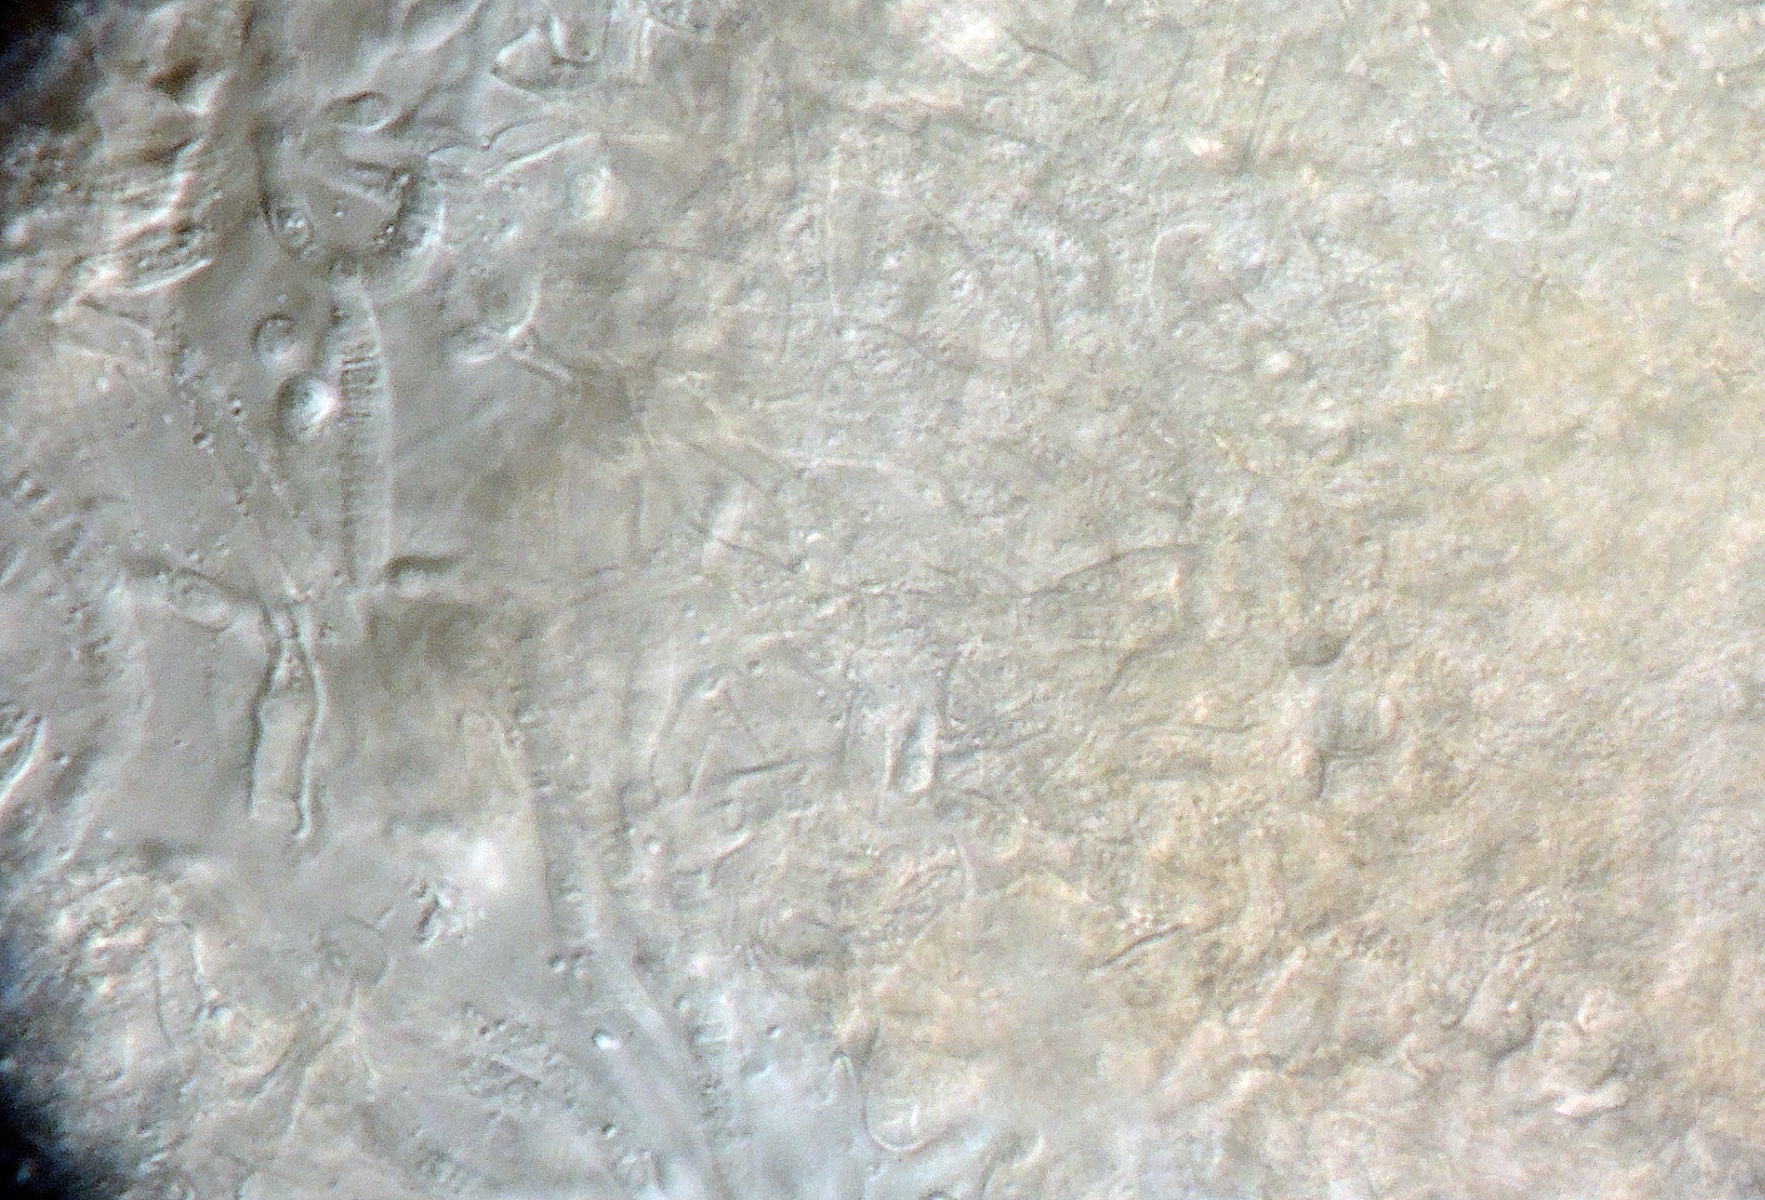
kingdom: Fungi
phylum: Ascomycota
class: Sordariomycetes
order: Hypocreales
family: Bionectriaceae
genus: Nectriopsis
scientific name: Nectriopsis tremellicola
